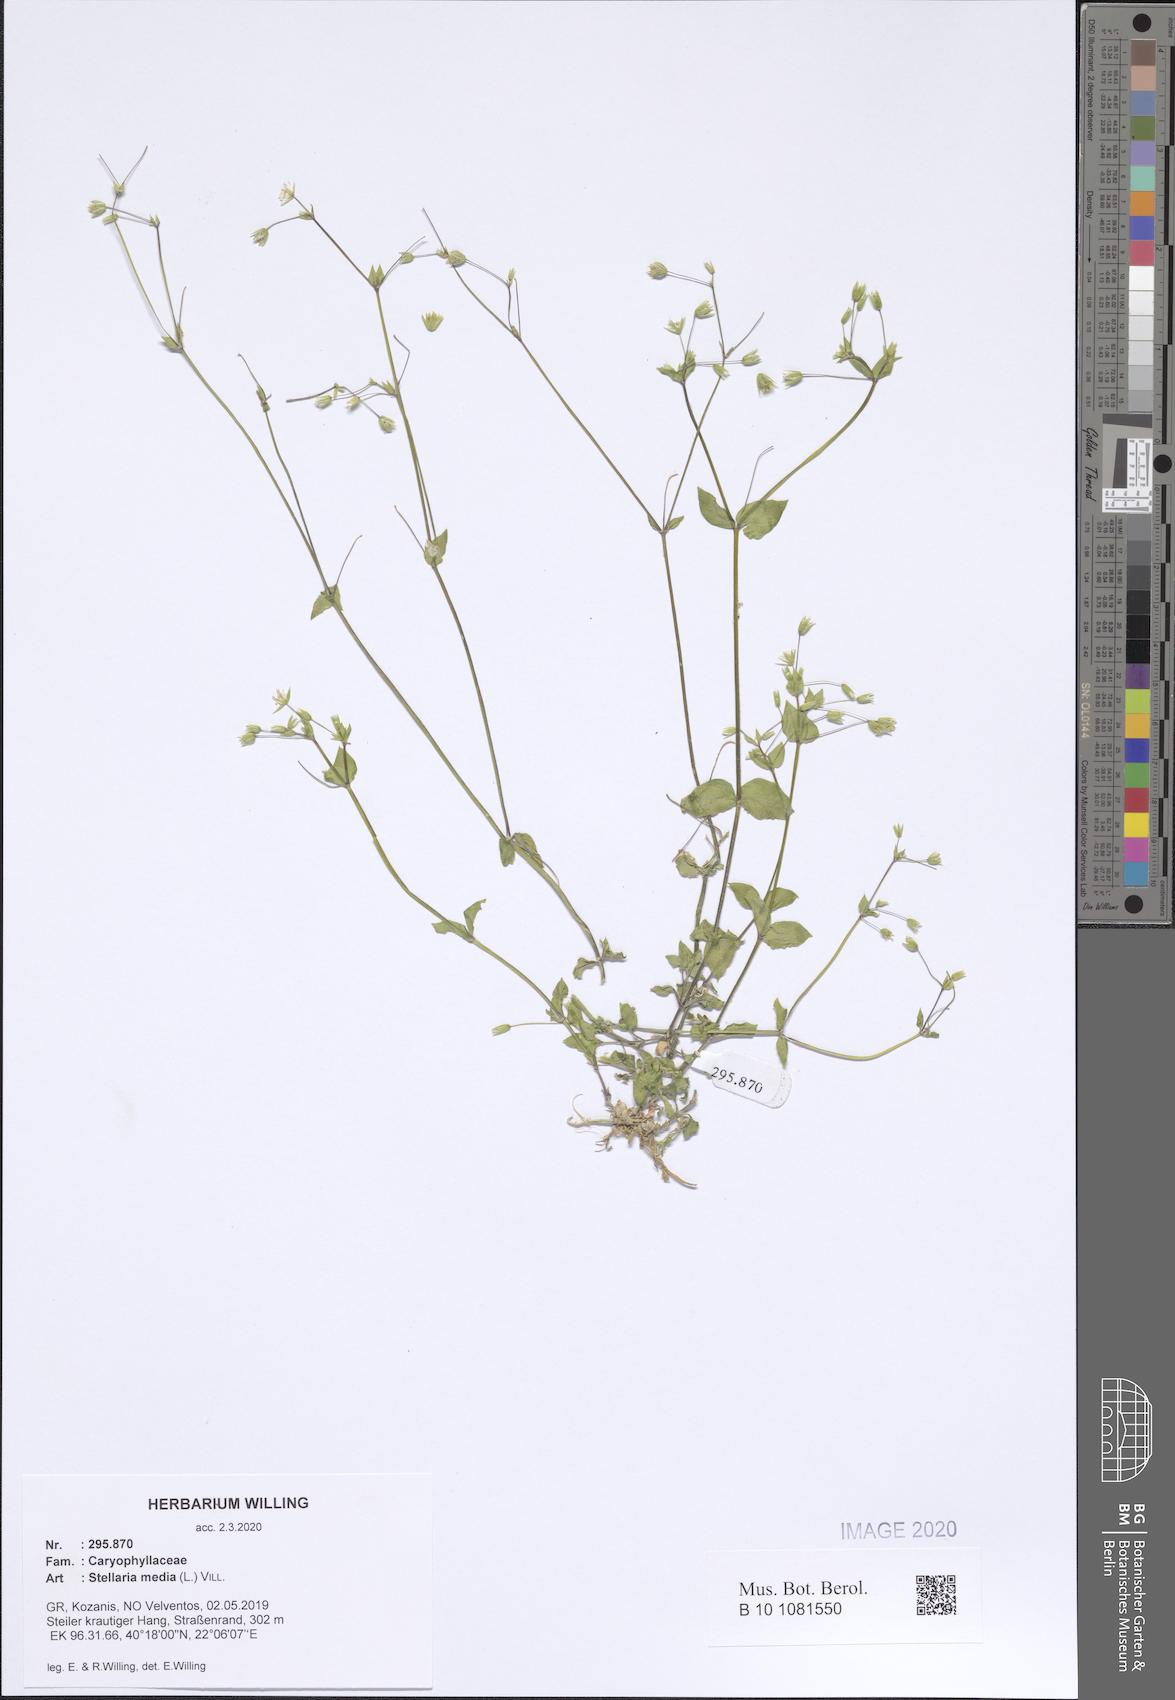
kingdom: Plantae
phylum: Tracheophyta
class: Magnoliopsida
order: Caryophyllales
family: Caryophyllaceae
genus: Stellaria
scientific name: Stellaria media
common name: Common chickweed
